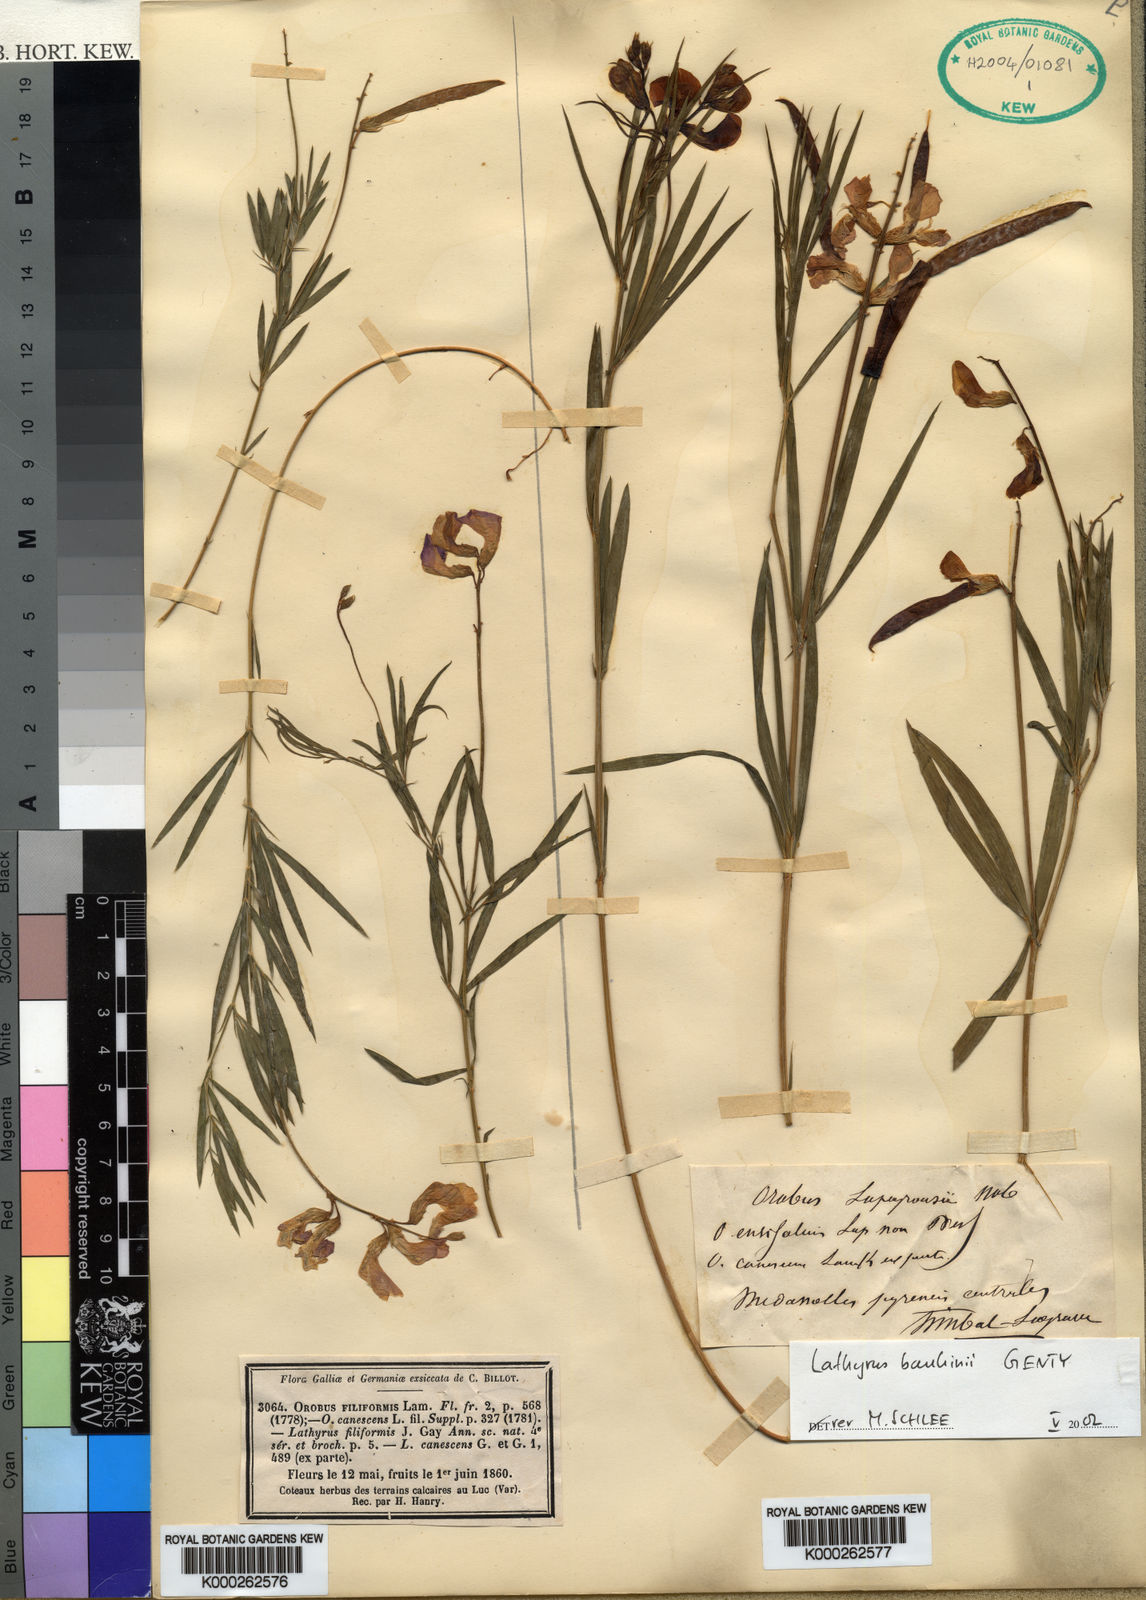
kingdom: Plantae
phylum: Tracheophyta
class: Magnoliopsida
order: Fabales
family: Fabaceae
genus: Lathyrus
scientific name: Lathyrus bauhini
